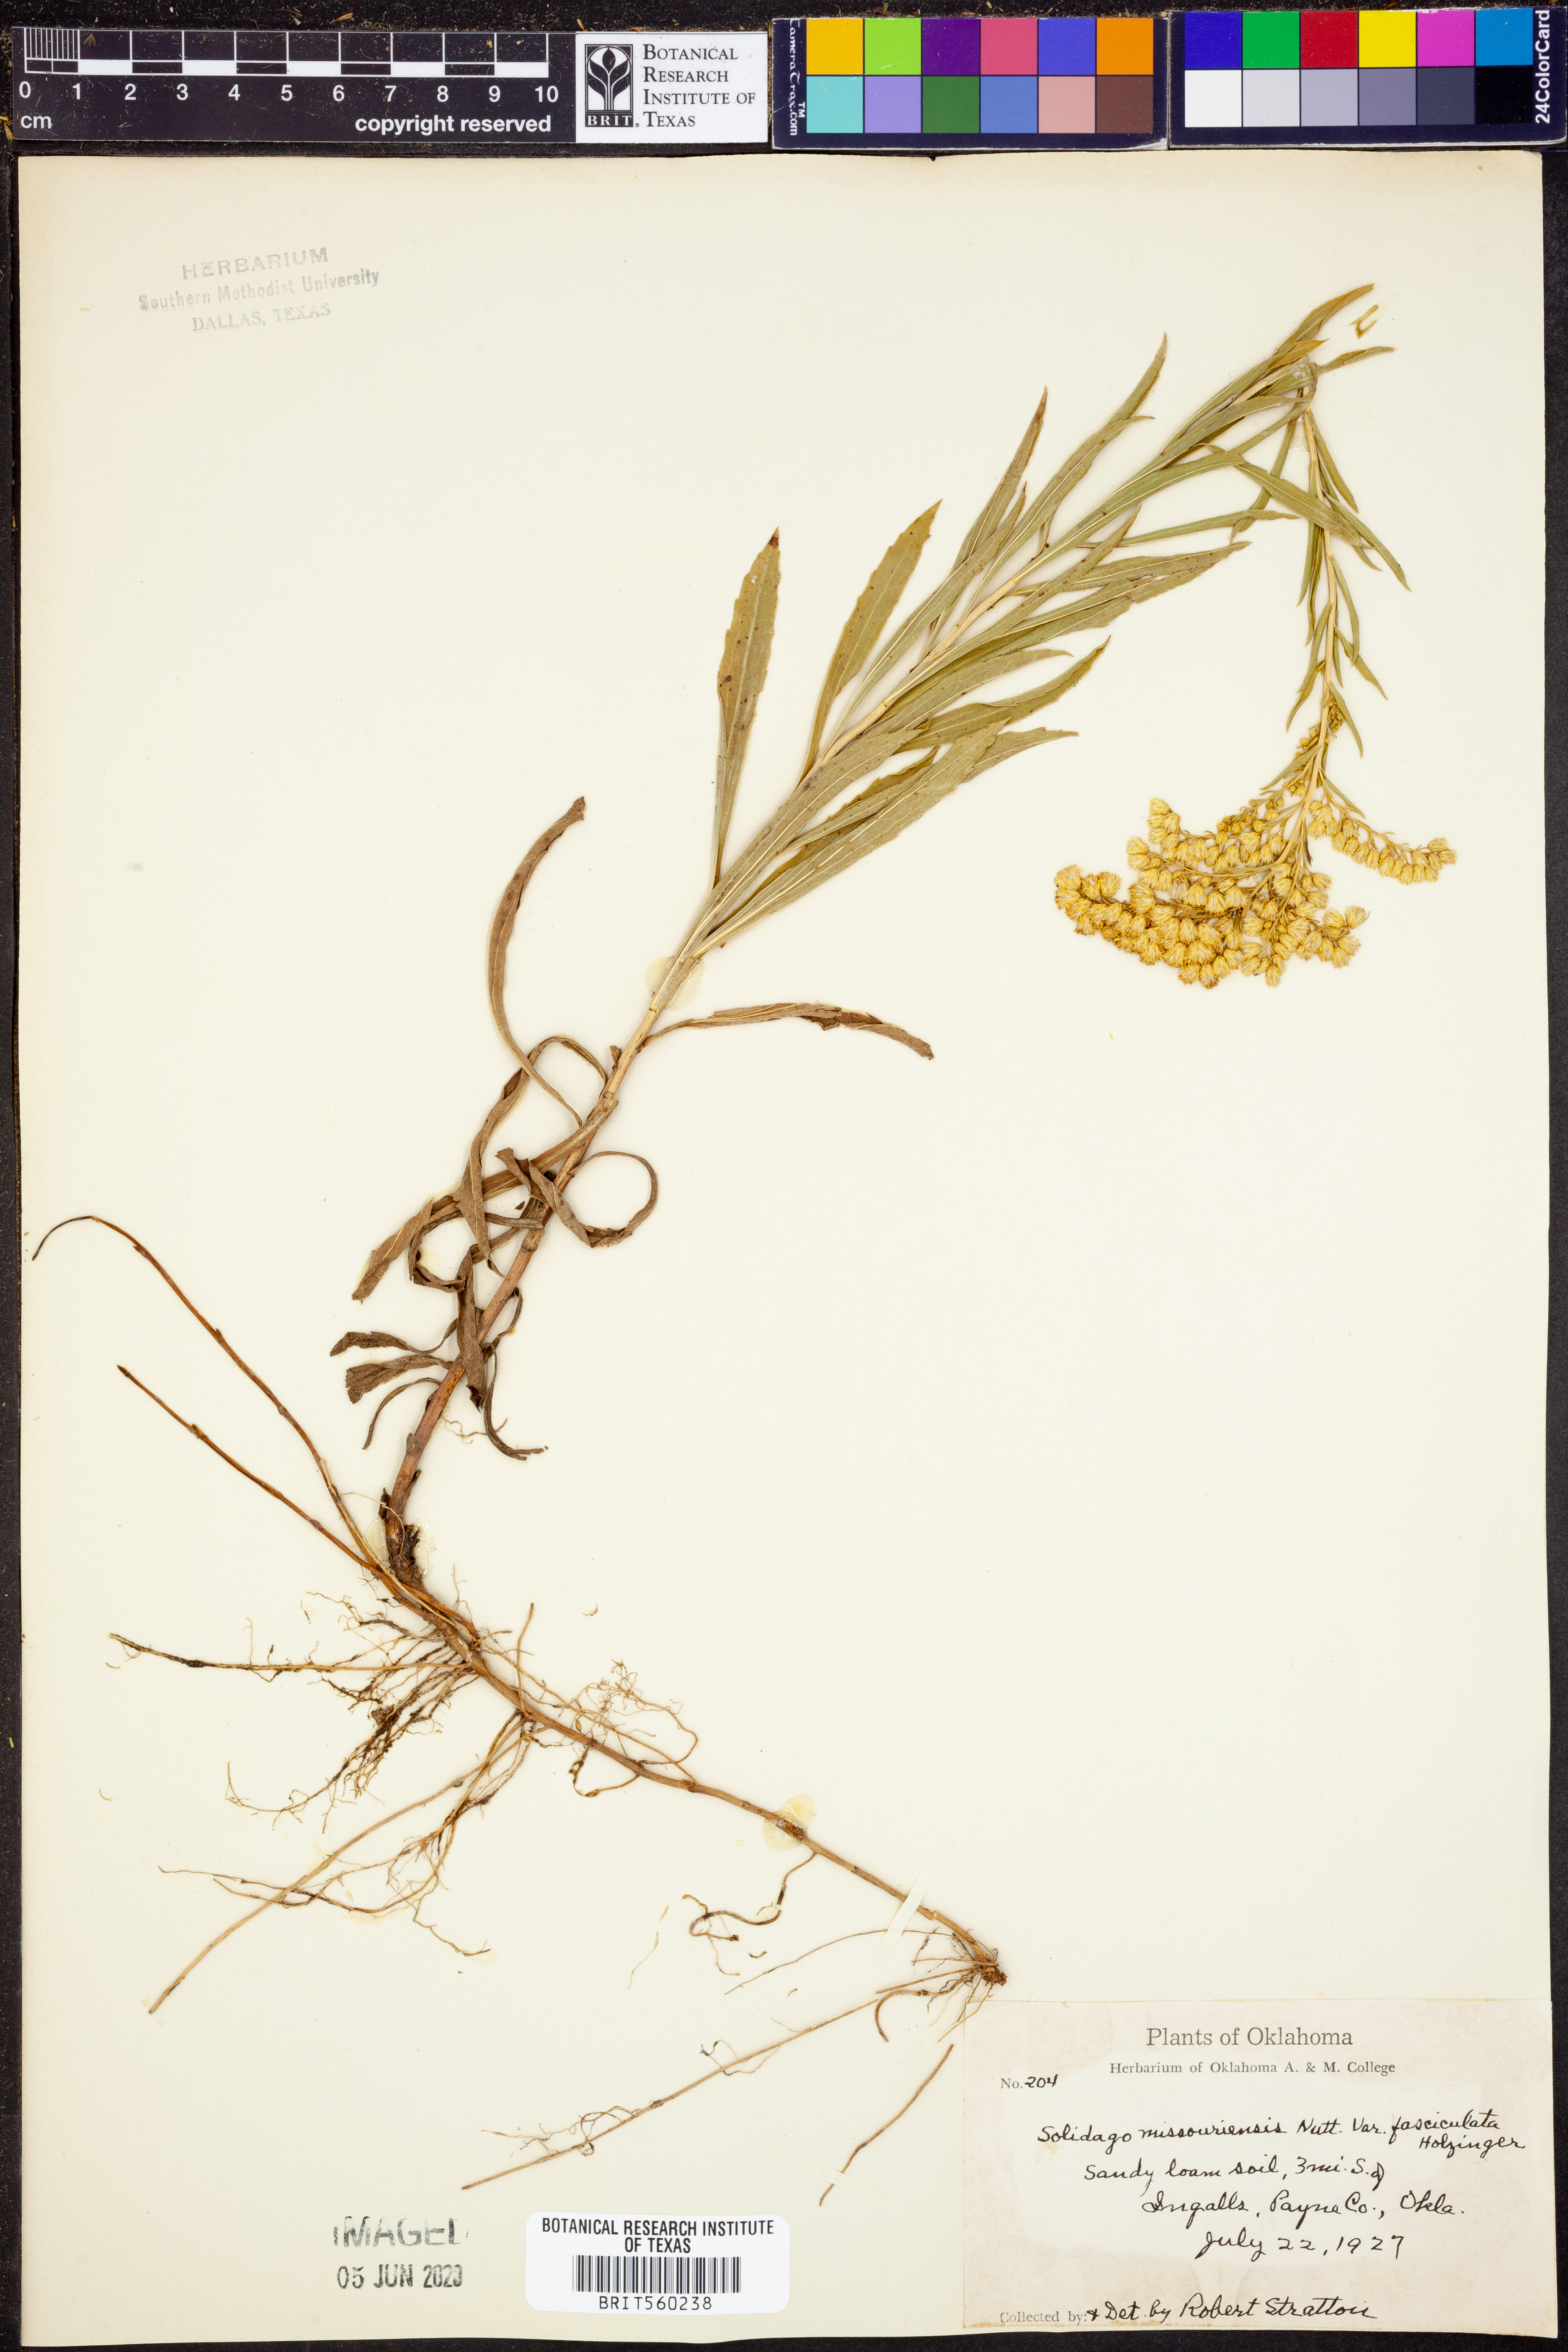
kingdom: Plantae
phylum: Tracheophyta
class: Magnoliopsida
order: Asterales
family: Asteraceae
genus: Solidago
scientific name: Solidago missouriensis
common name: Prairie goldenrod
